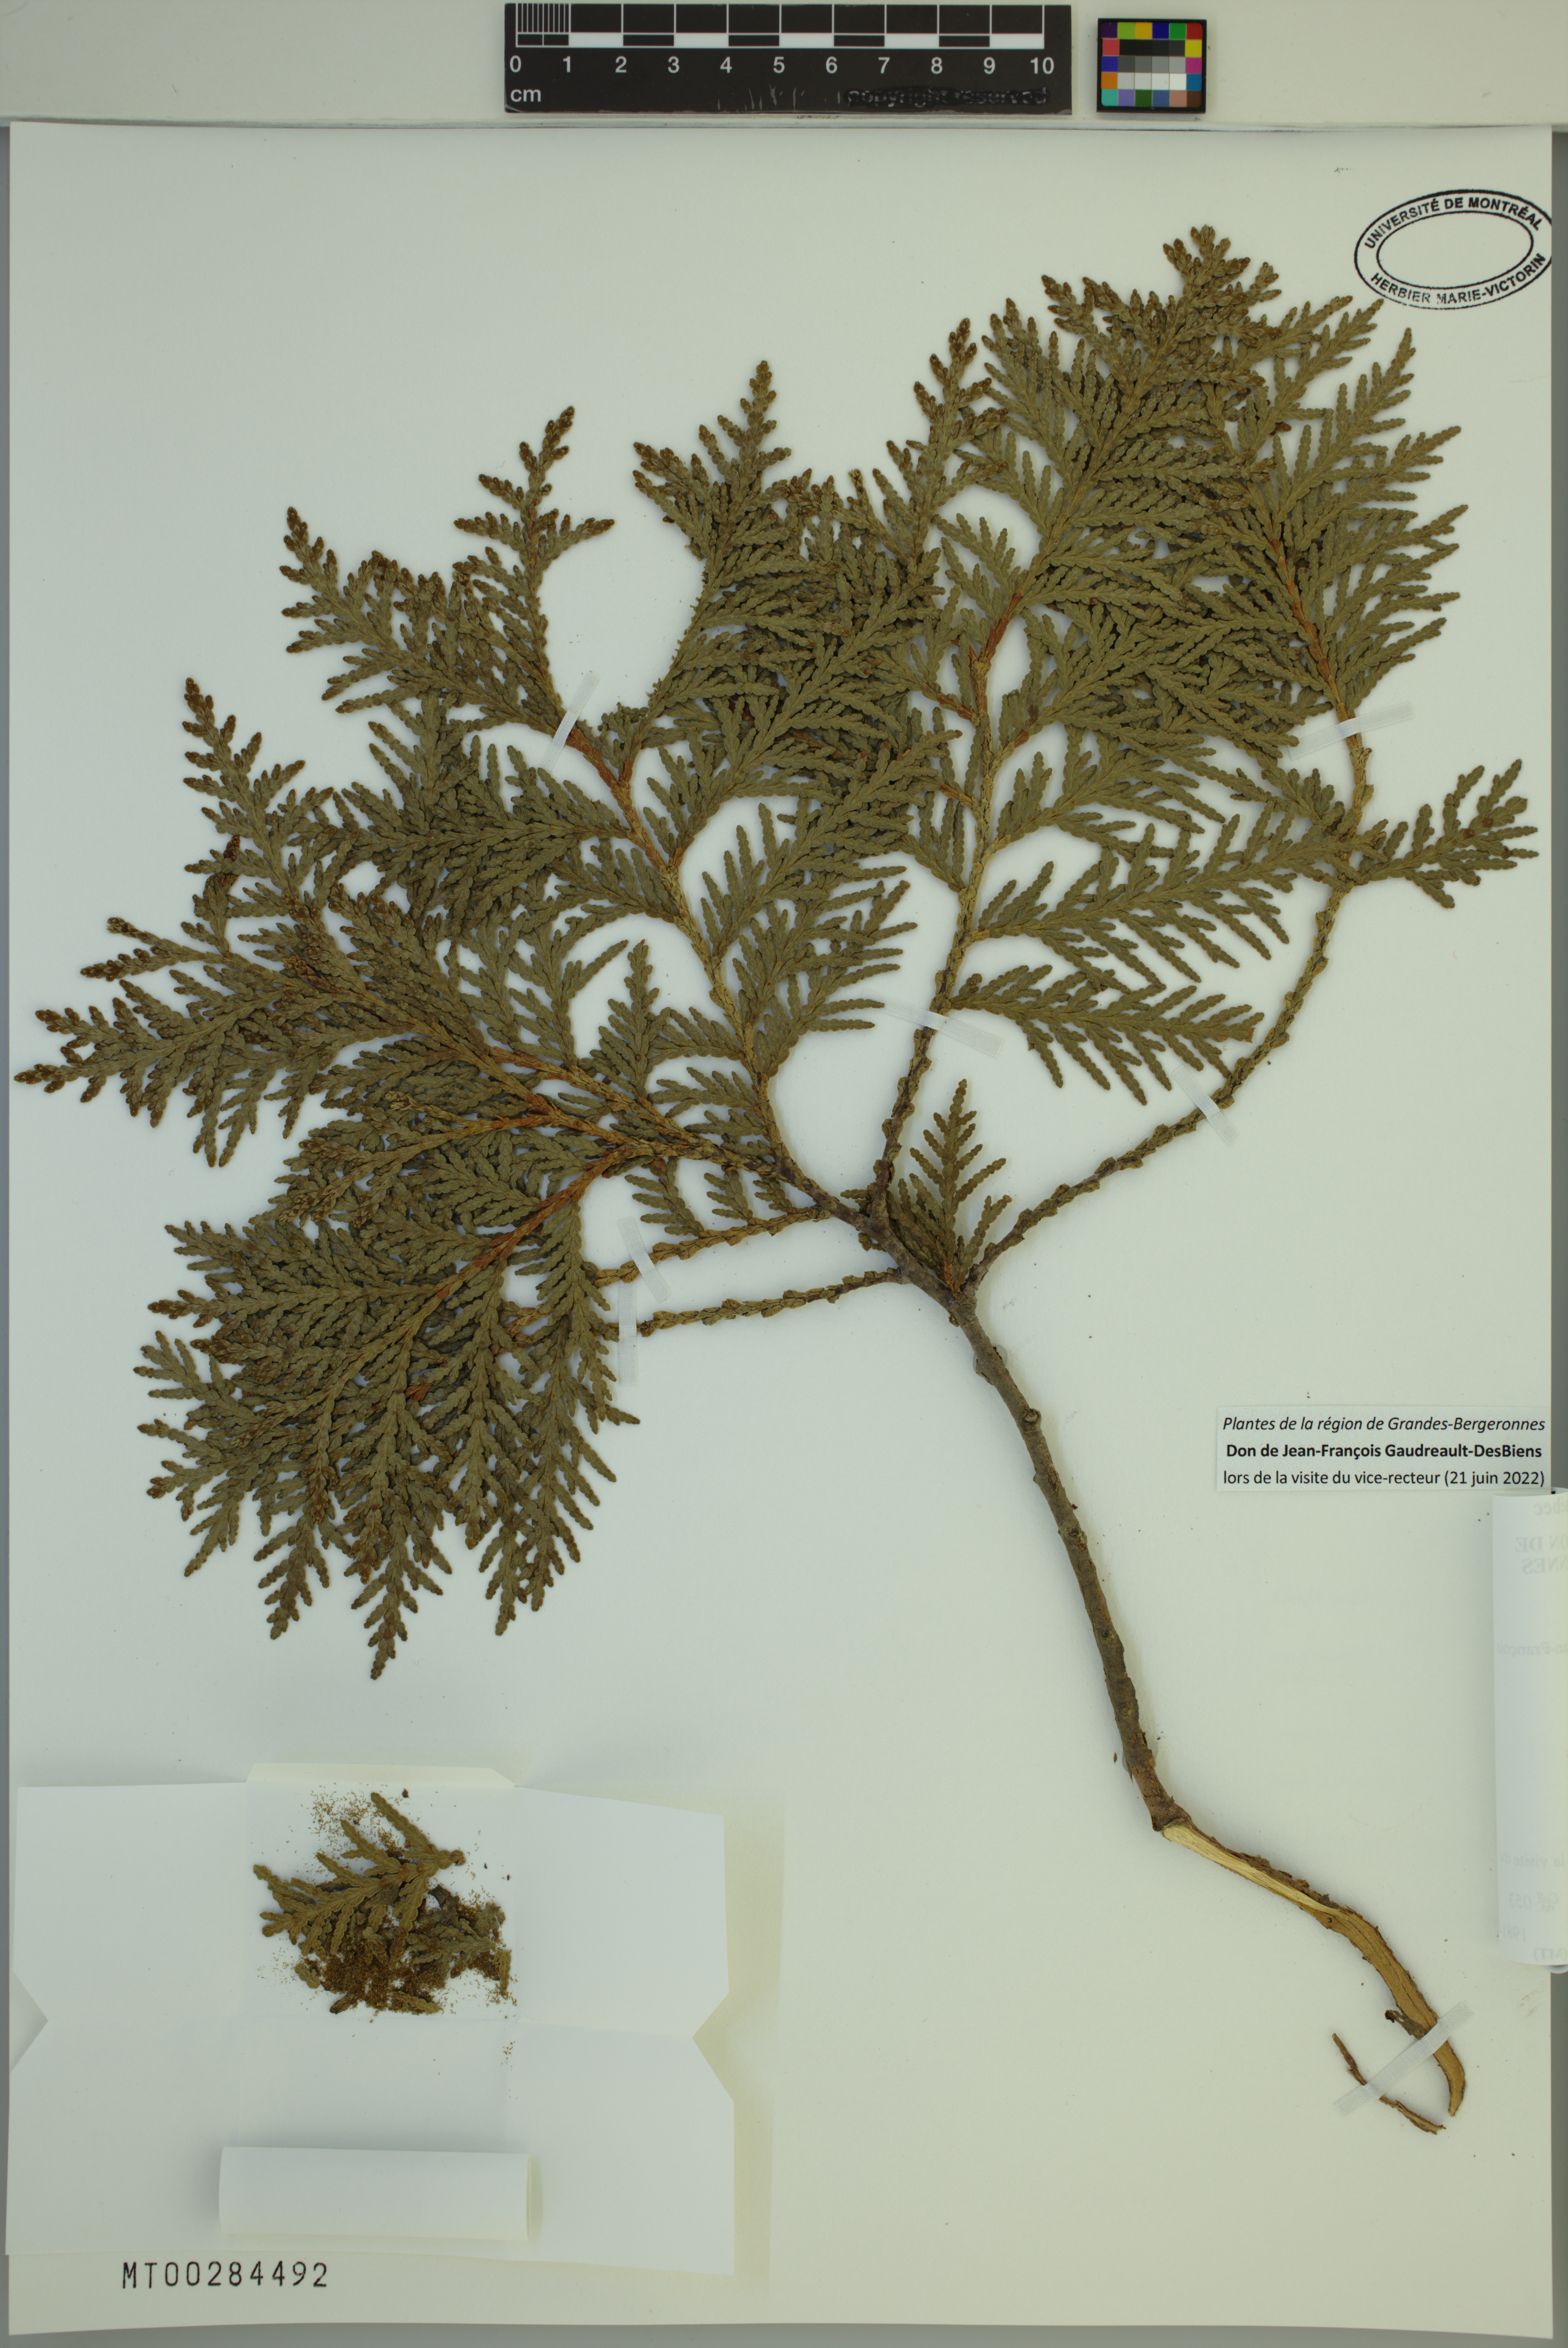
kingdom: Plantae
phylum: Tracheophyta
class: Pinopsida
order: Pinales
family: Cupressaceae
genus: Thuja
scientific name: Thuja occidentalis
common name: Northern white-cedar
